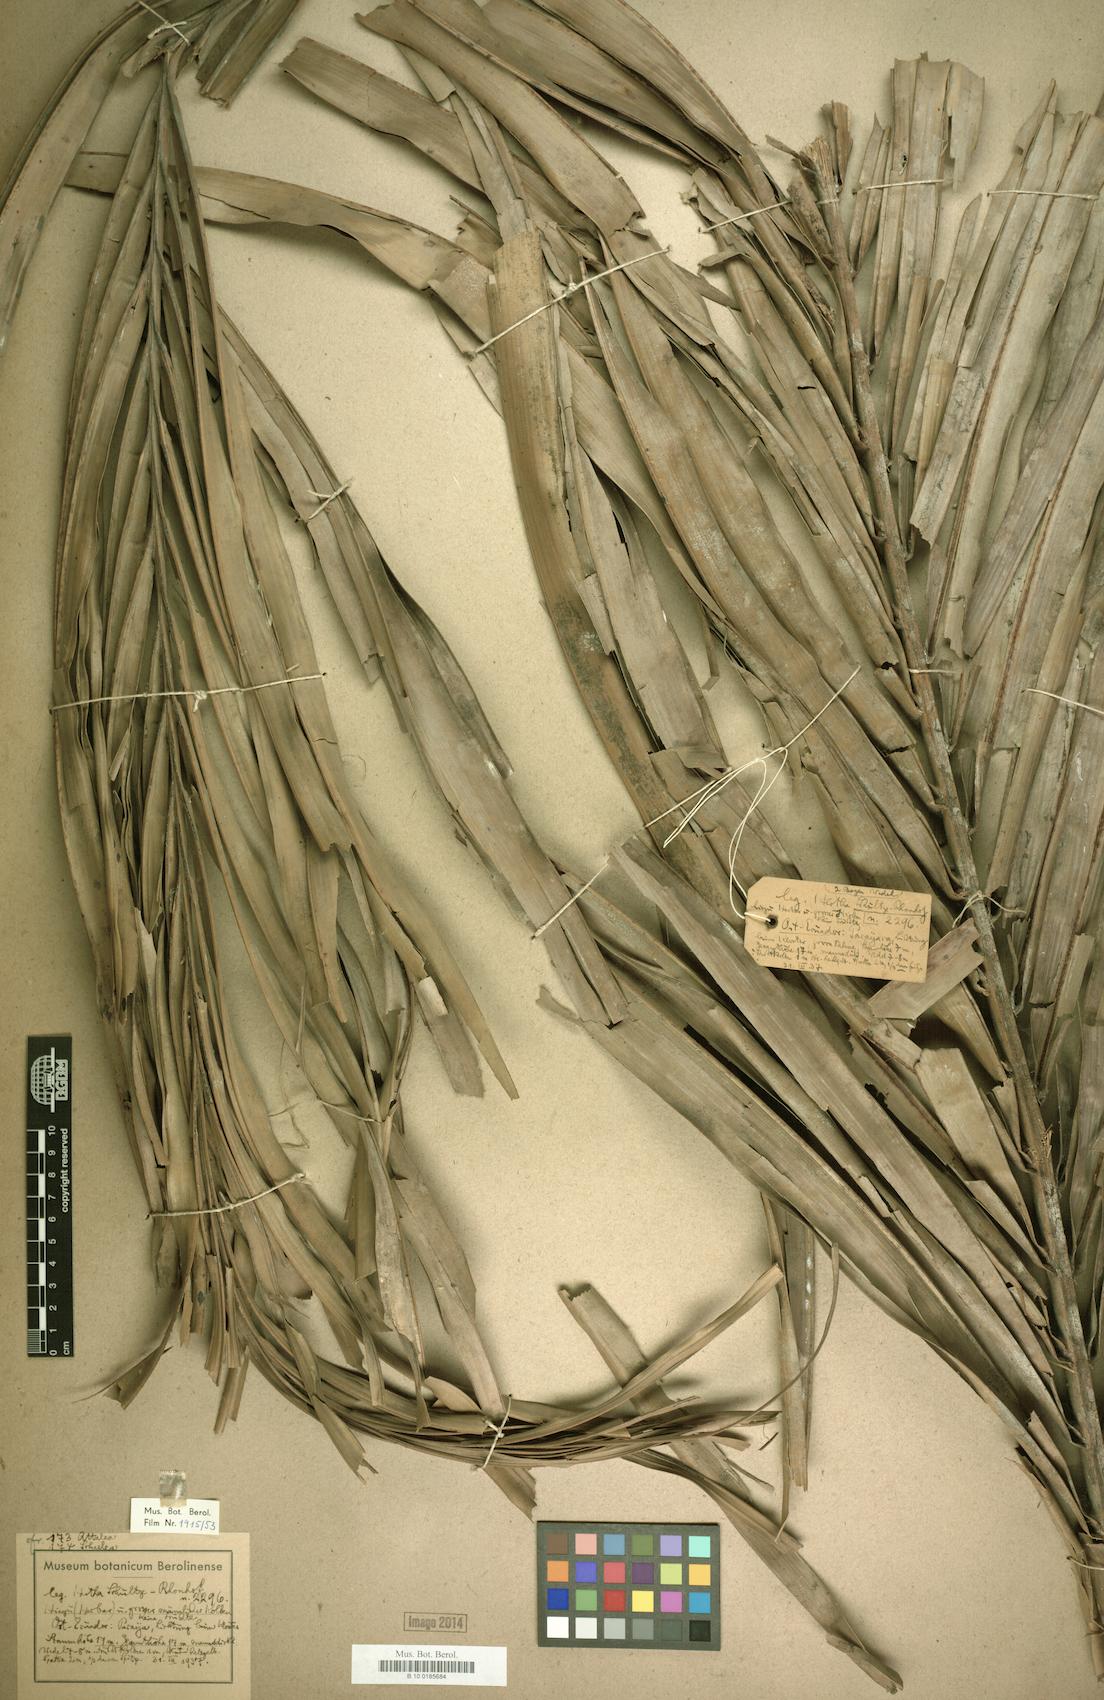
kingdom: Plantae
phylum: Tracheophyta
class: Liliopsida
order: Arecales
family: Arecaceae
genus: Attalea
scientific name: Attalea
